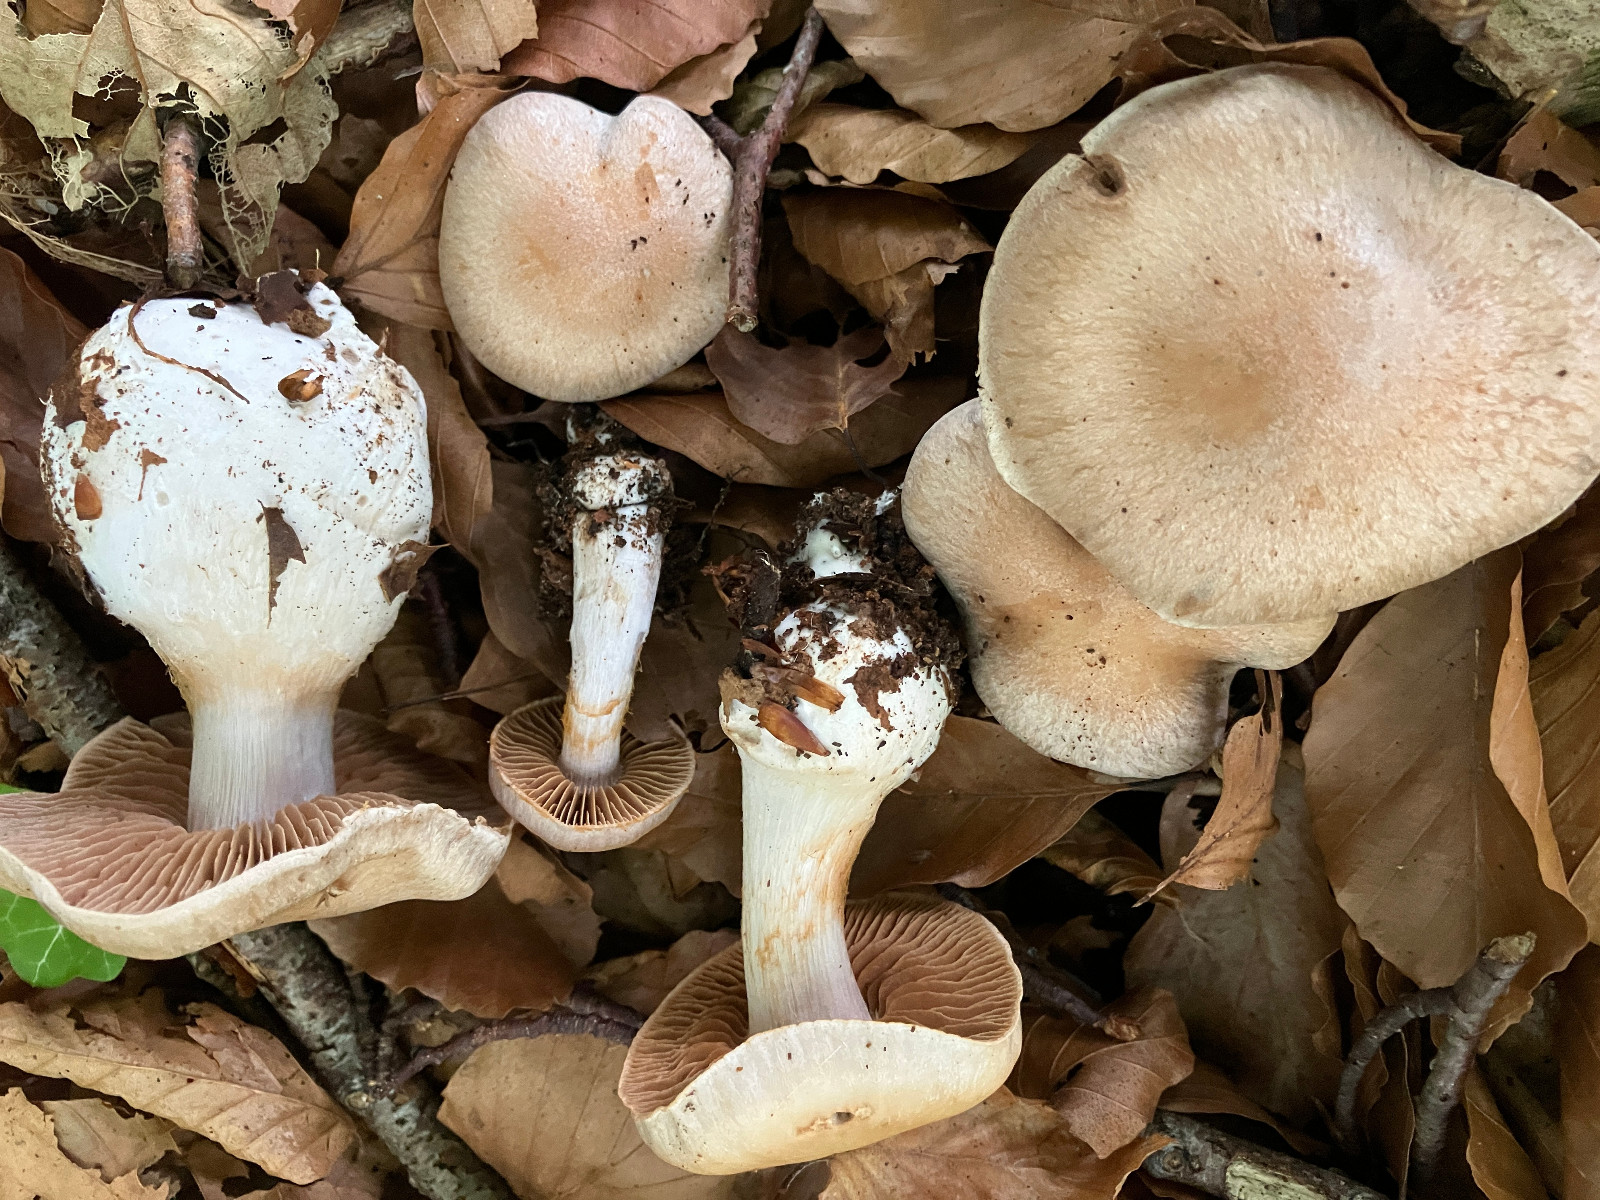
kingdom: Fungi
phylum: Basidiomycota
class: Agaricomycetes
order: Agaricales
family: Cortinariaceae
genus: Cortinarius
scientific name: Cortinarius turgidus
